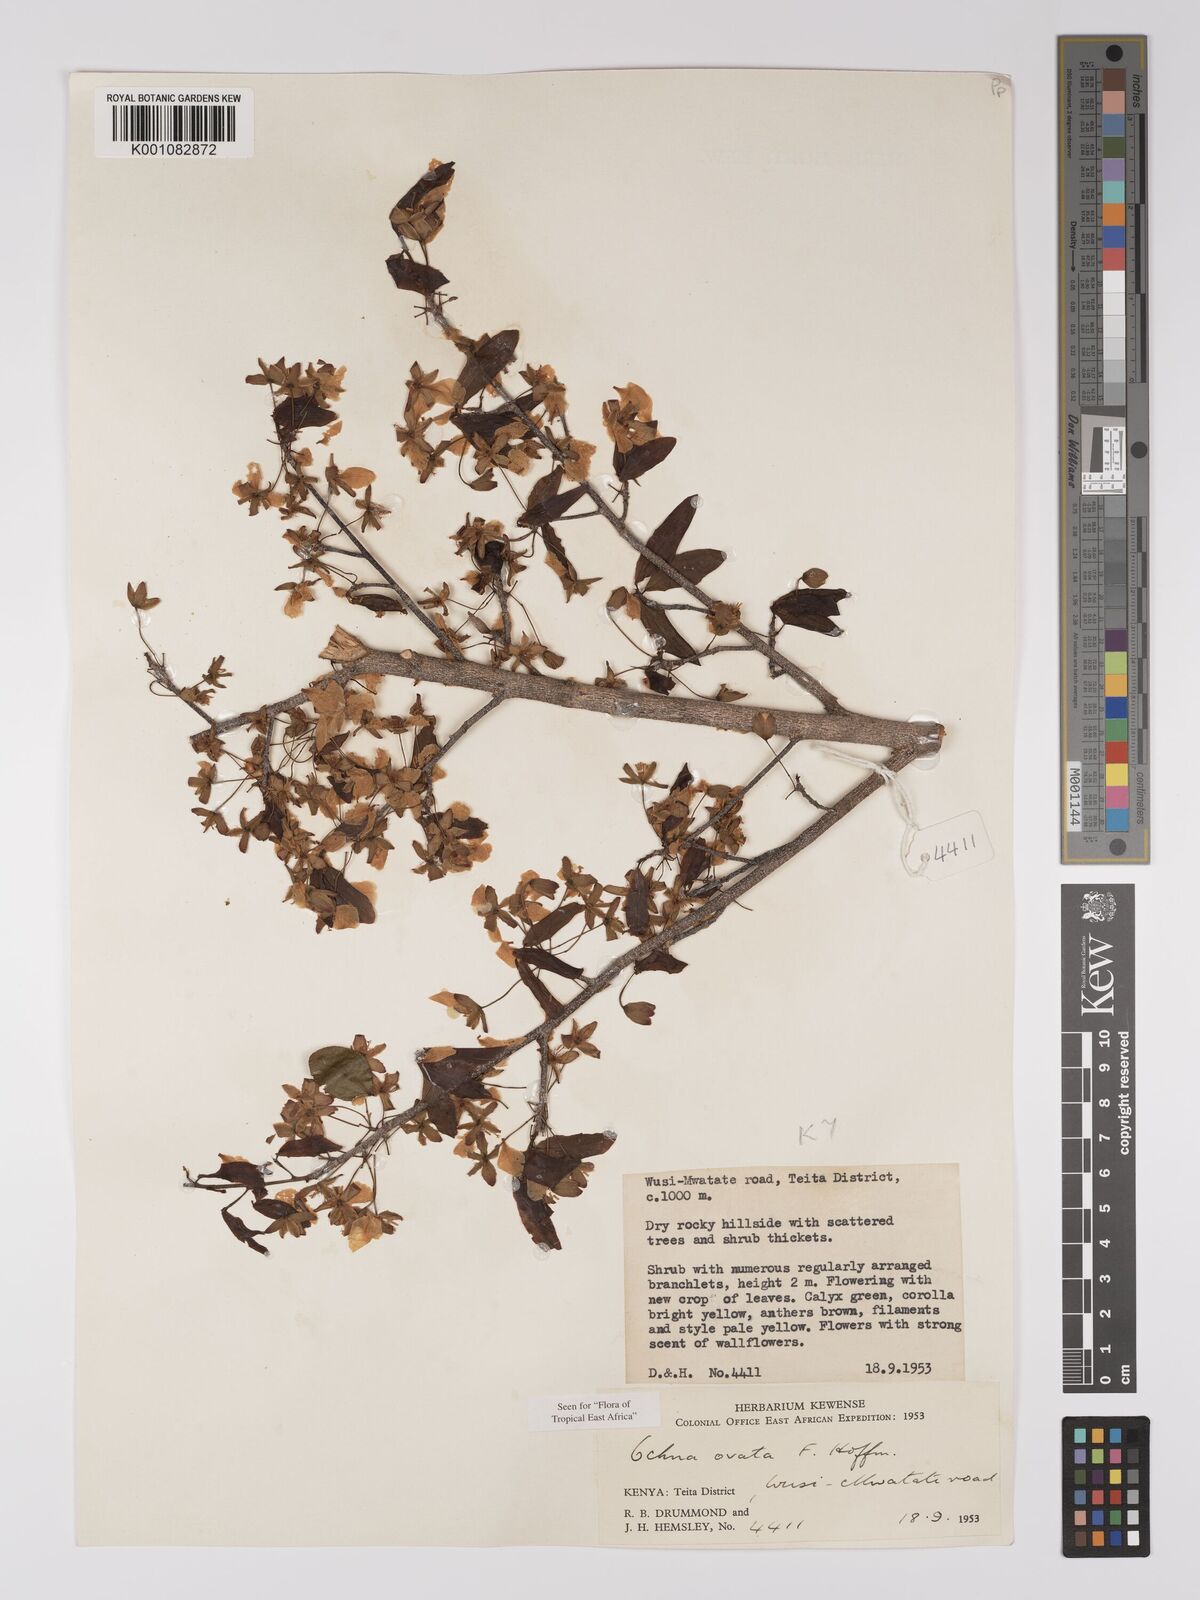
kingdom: Plantae
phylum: Tracheophyta
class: Magnoliopsida
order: Malpighiales
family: Ochnaceae
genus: Ochna
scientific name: Ochna ovata
